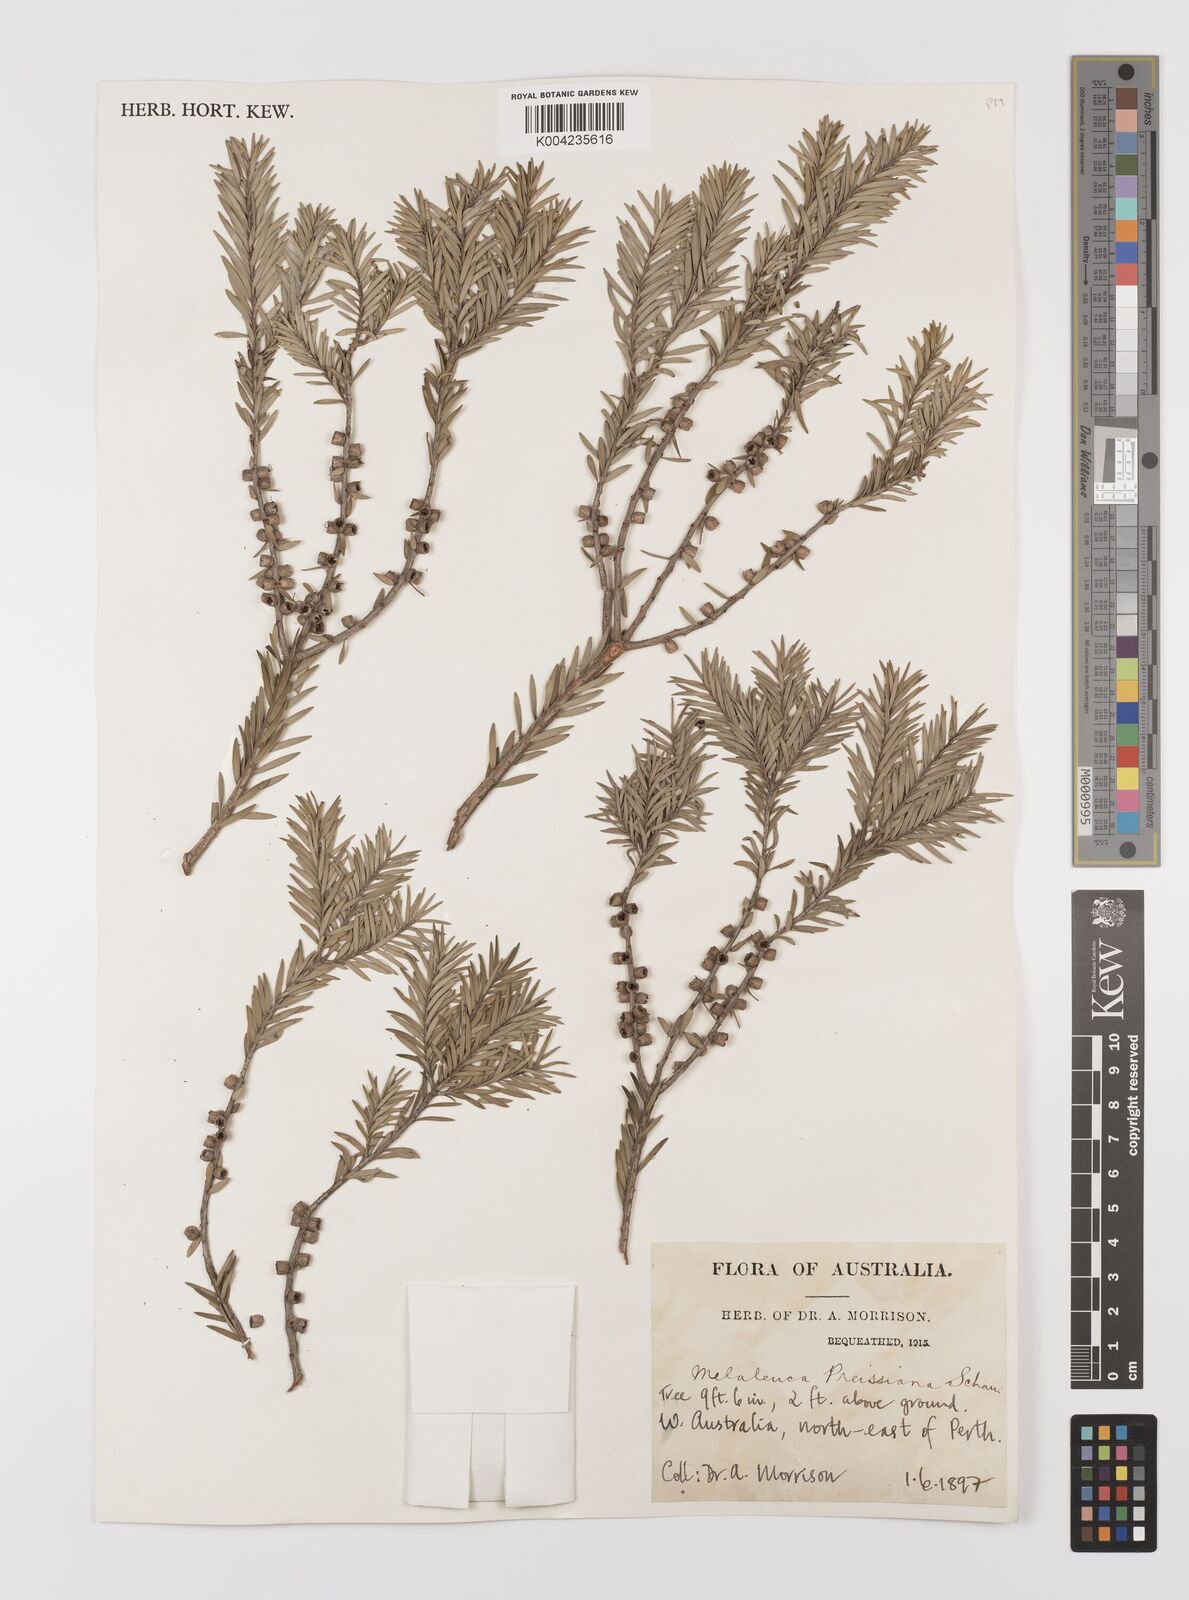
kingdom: Plantae
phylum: Tracheophyta
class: Magnoliopsida
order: Myrtales
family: Myrtaceae
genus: Melaleuca
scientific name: Melaleuca preissiana
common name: Preiss's paperbark
